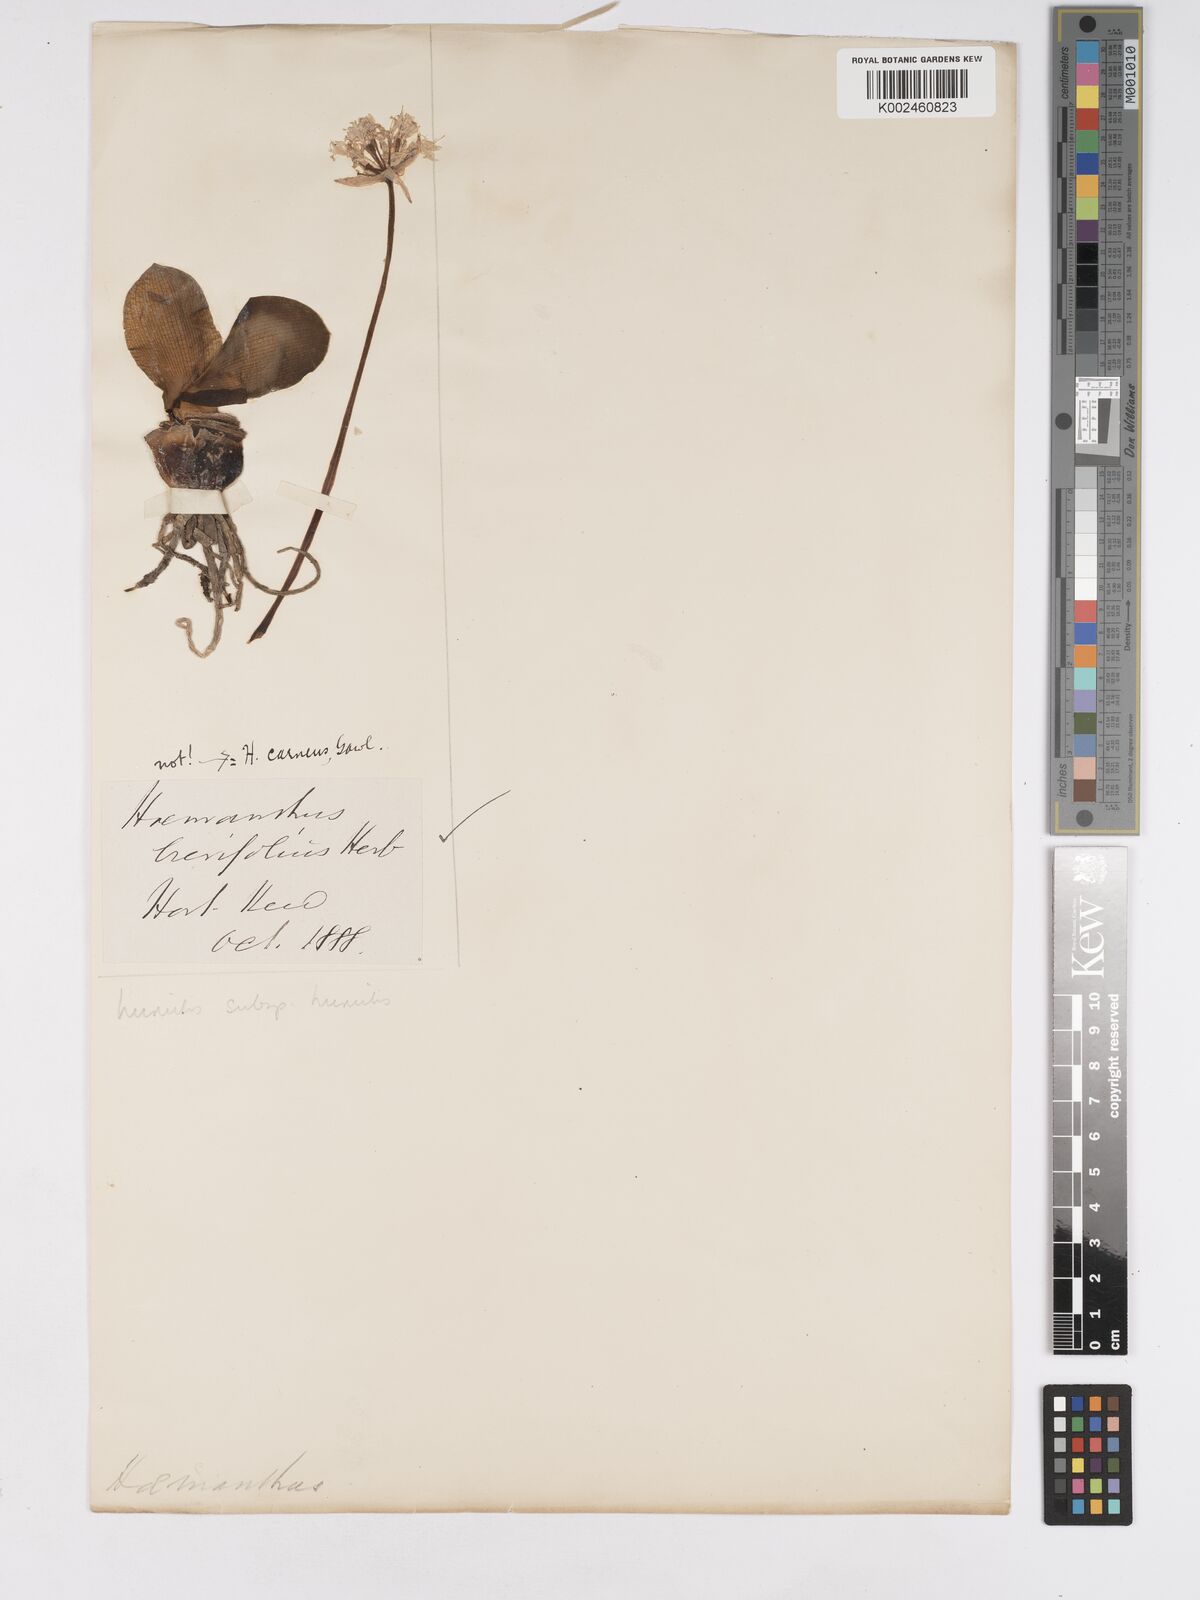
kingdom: Plantae
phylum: Tracheophyta
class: Liliopsida
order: Asparagales
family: Amaryllidaceae
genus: Haemanthus
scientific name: Haemanthus humilis
